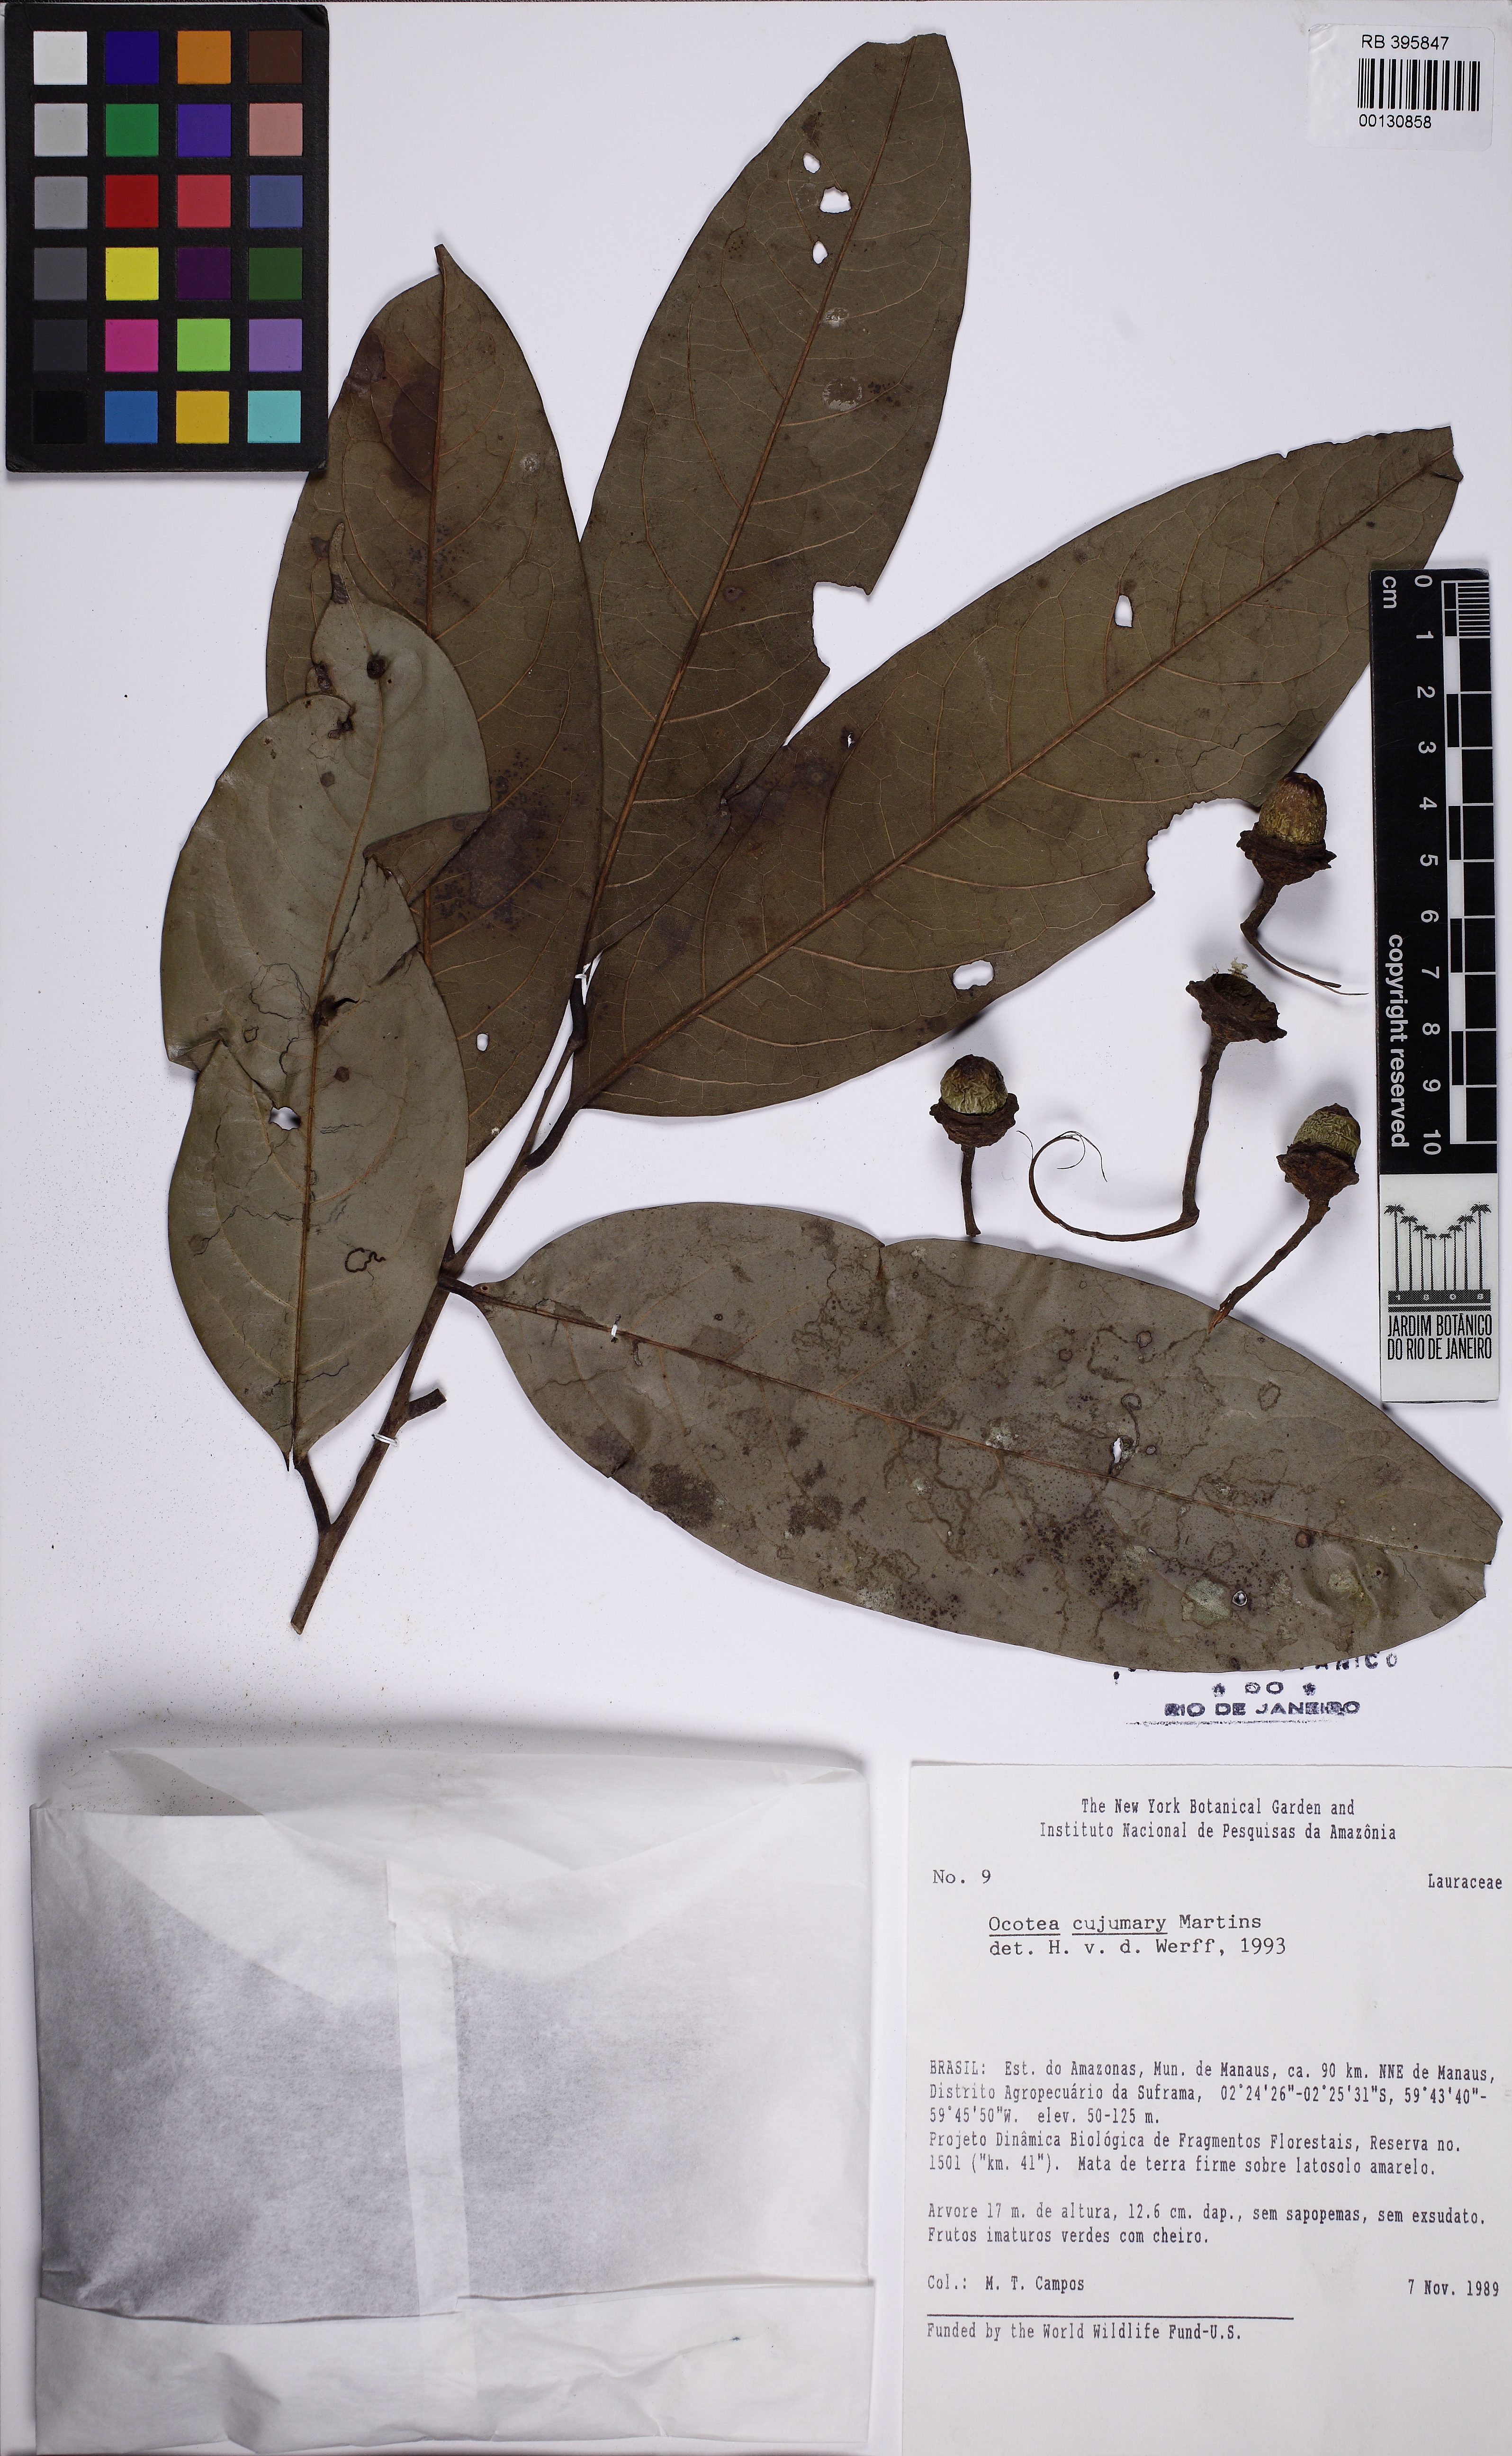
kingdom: Plantae
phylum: Tracheophyta
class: Magnoliopsida
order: Laurales
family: Lauraceae
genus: Ocotea
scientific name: Ocotea cujumary
